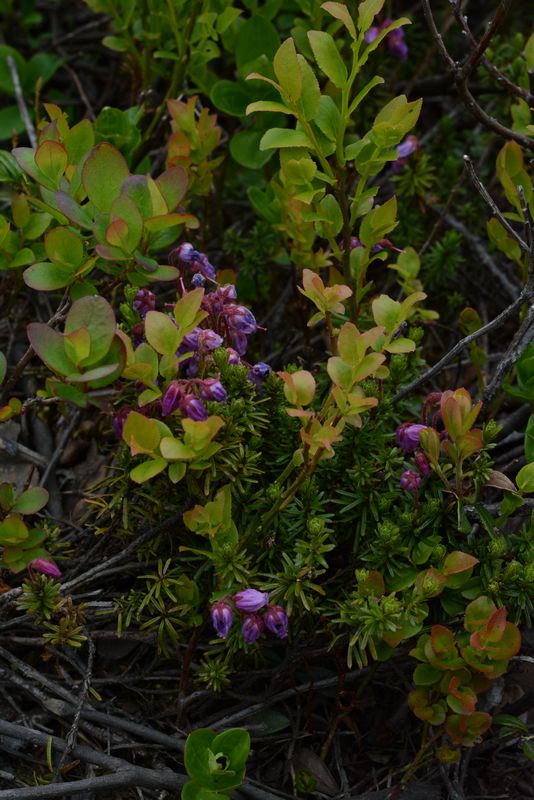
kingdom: Plantae
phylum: Tracheophyta
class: Magnoliopsida
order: Ericales
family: Ericaceae
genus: Phyllodoce
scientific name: Phyllodoce caerulea
